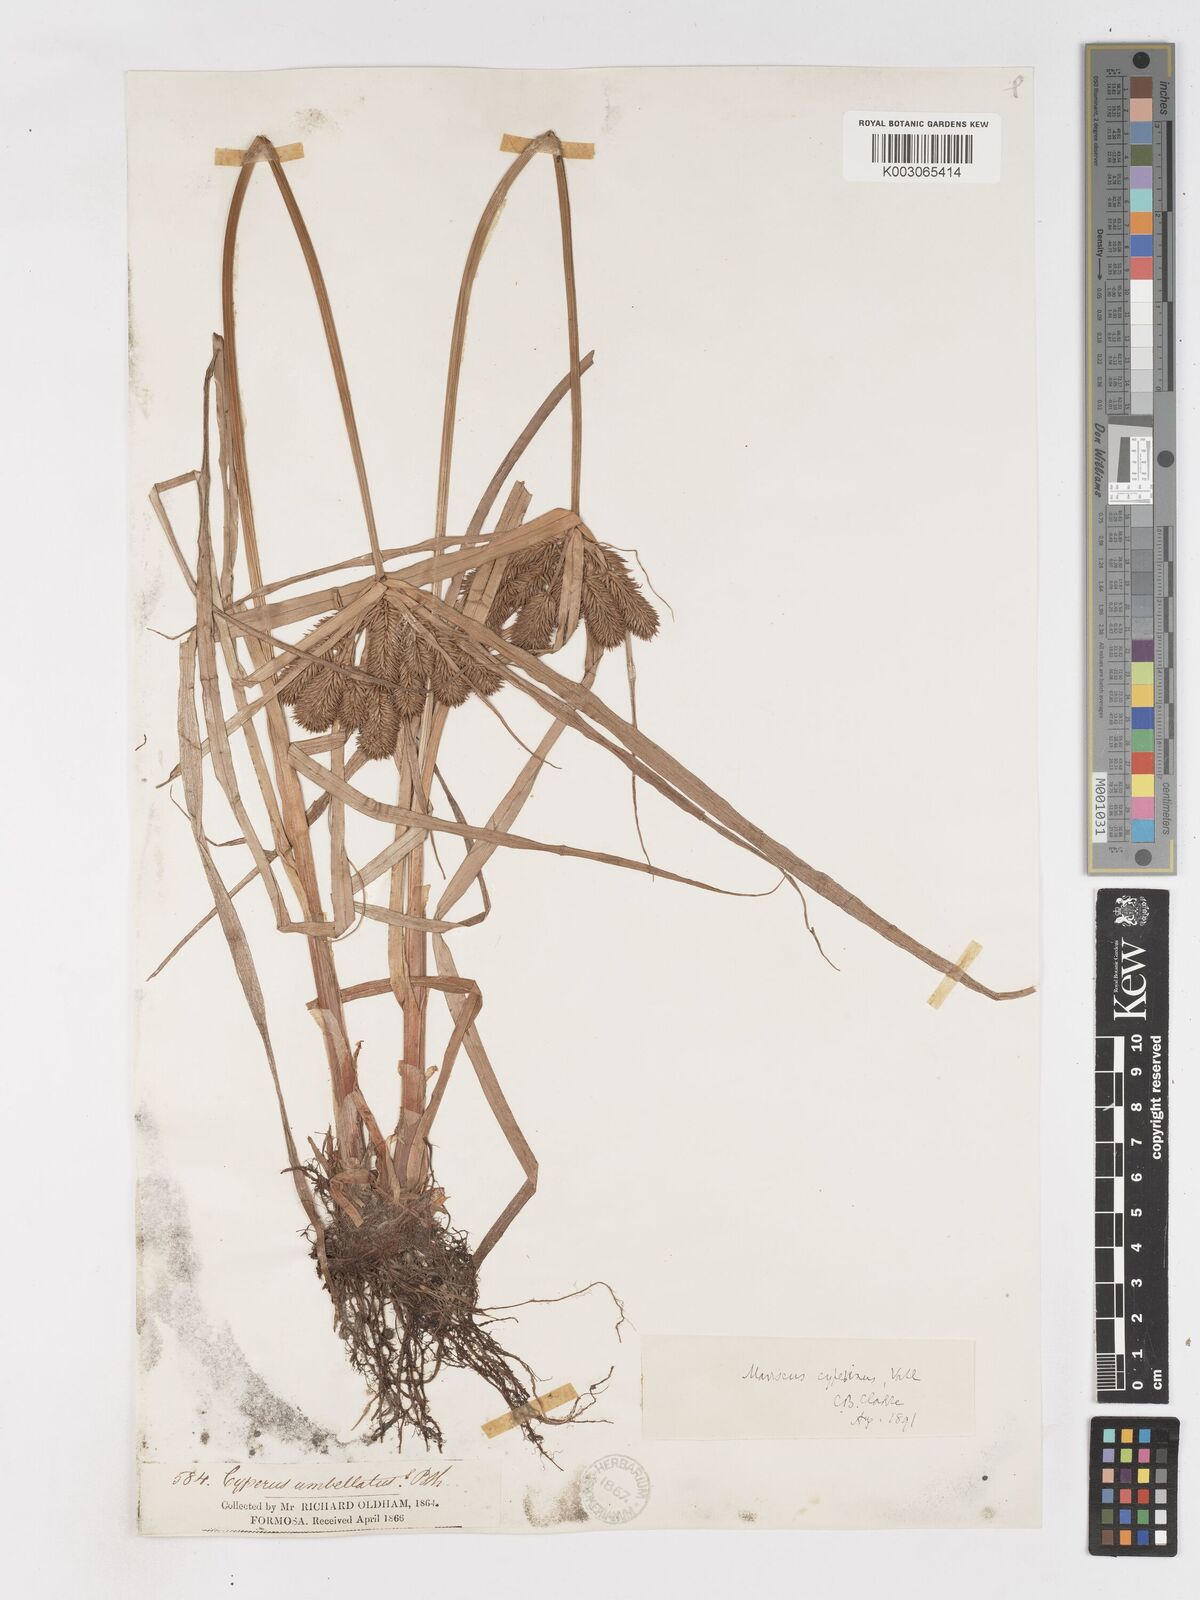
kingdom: Plantae
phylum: Tracheophyta
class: Liliopsida
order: Poales
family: Cyperaceae
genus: Cyperus
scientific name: Cyperus cyperoides
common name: Pacific island flat sedge
